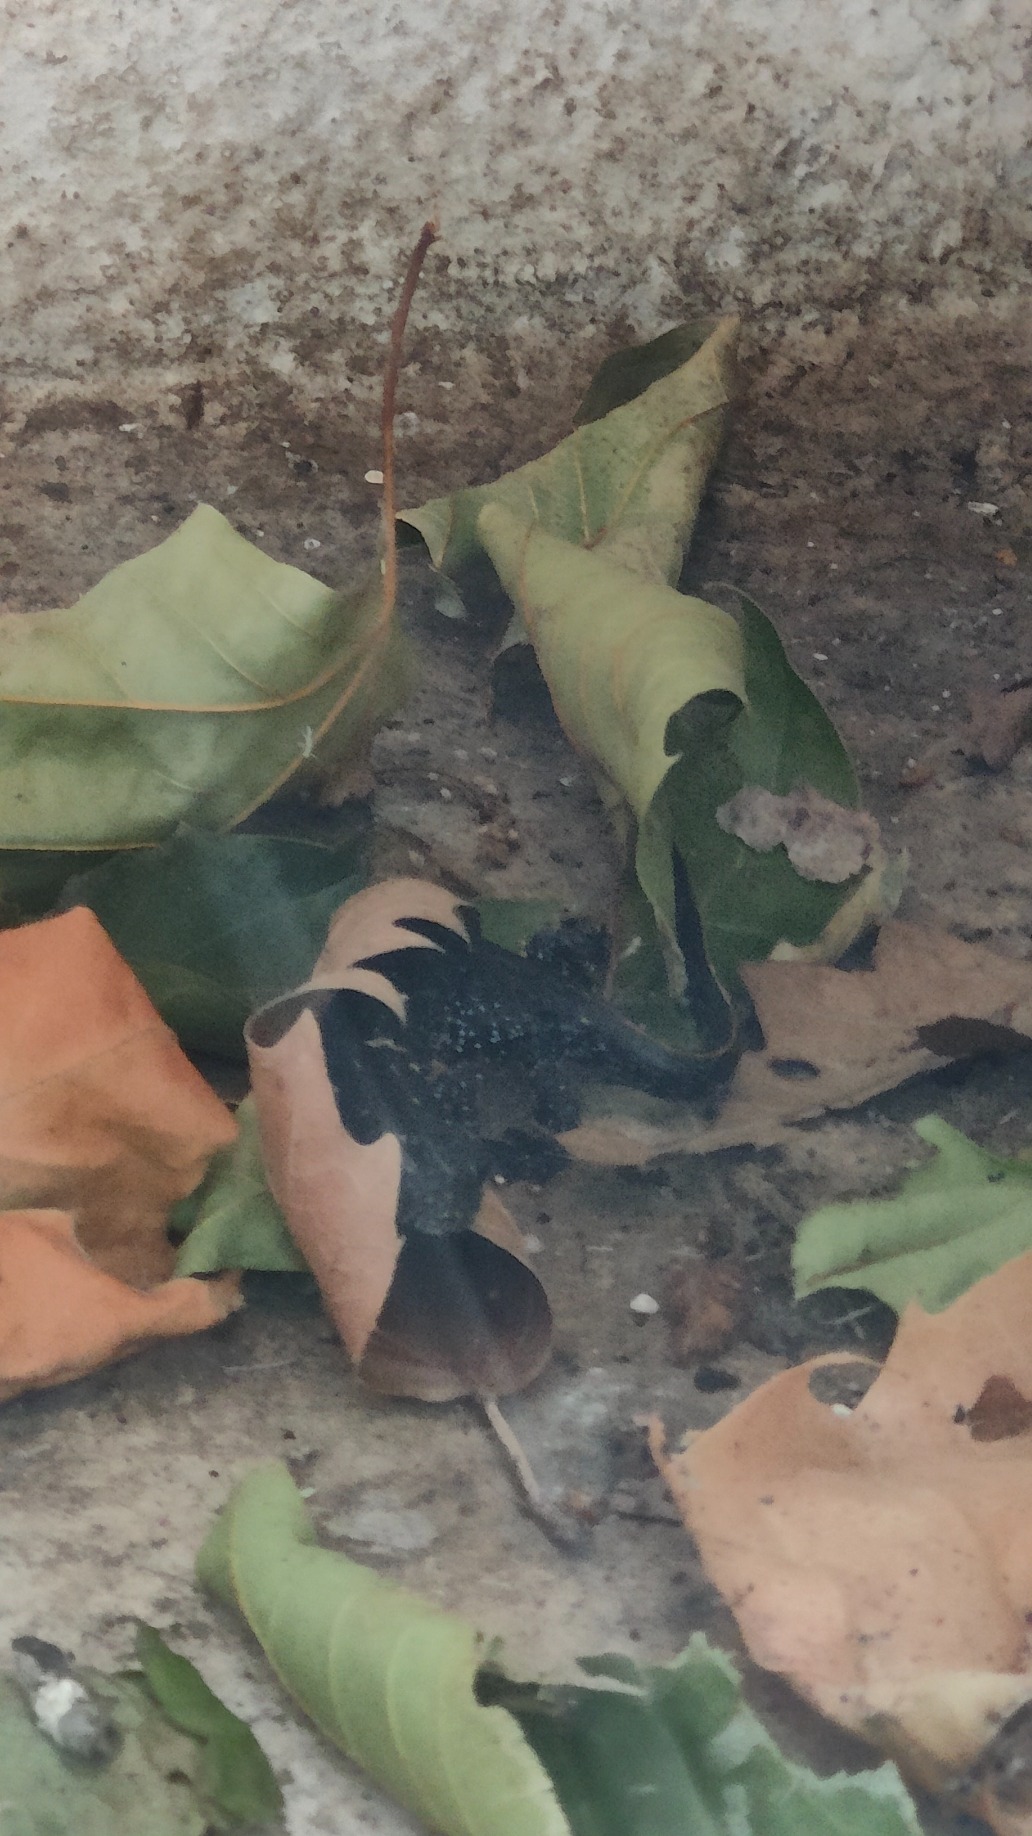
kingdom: Animalia
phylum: Chordata
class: Amphibia
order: Caudata
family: Salamandridae
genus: Triturus
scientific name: Triturus cristatus
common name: Stor vandsalamander
